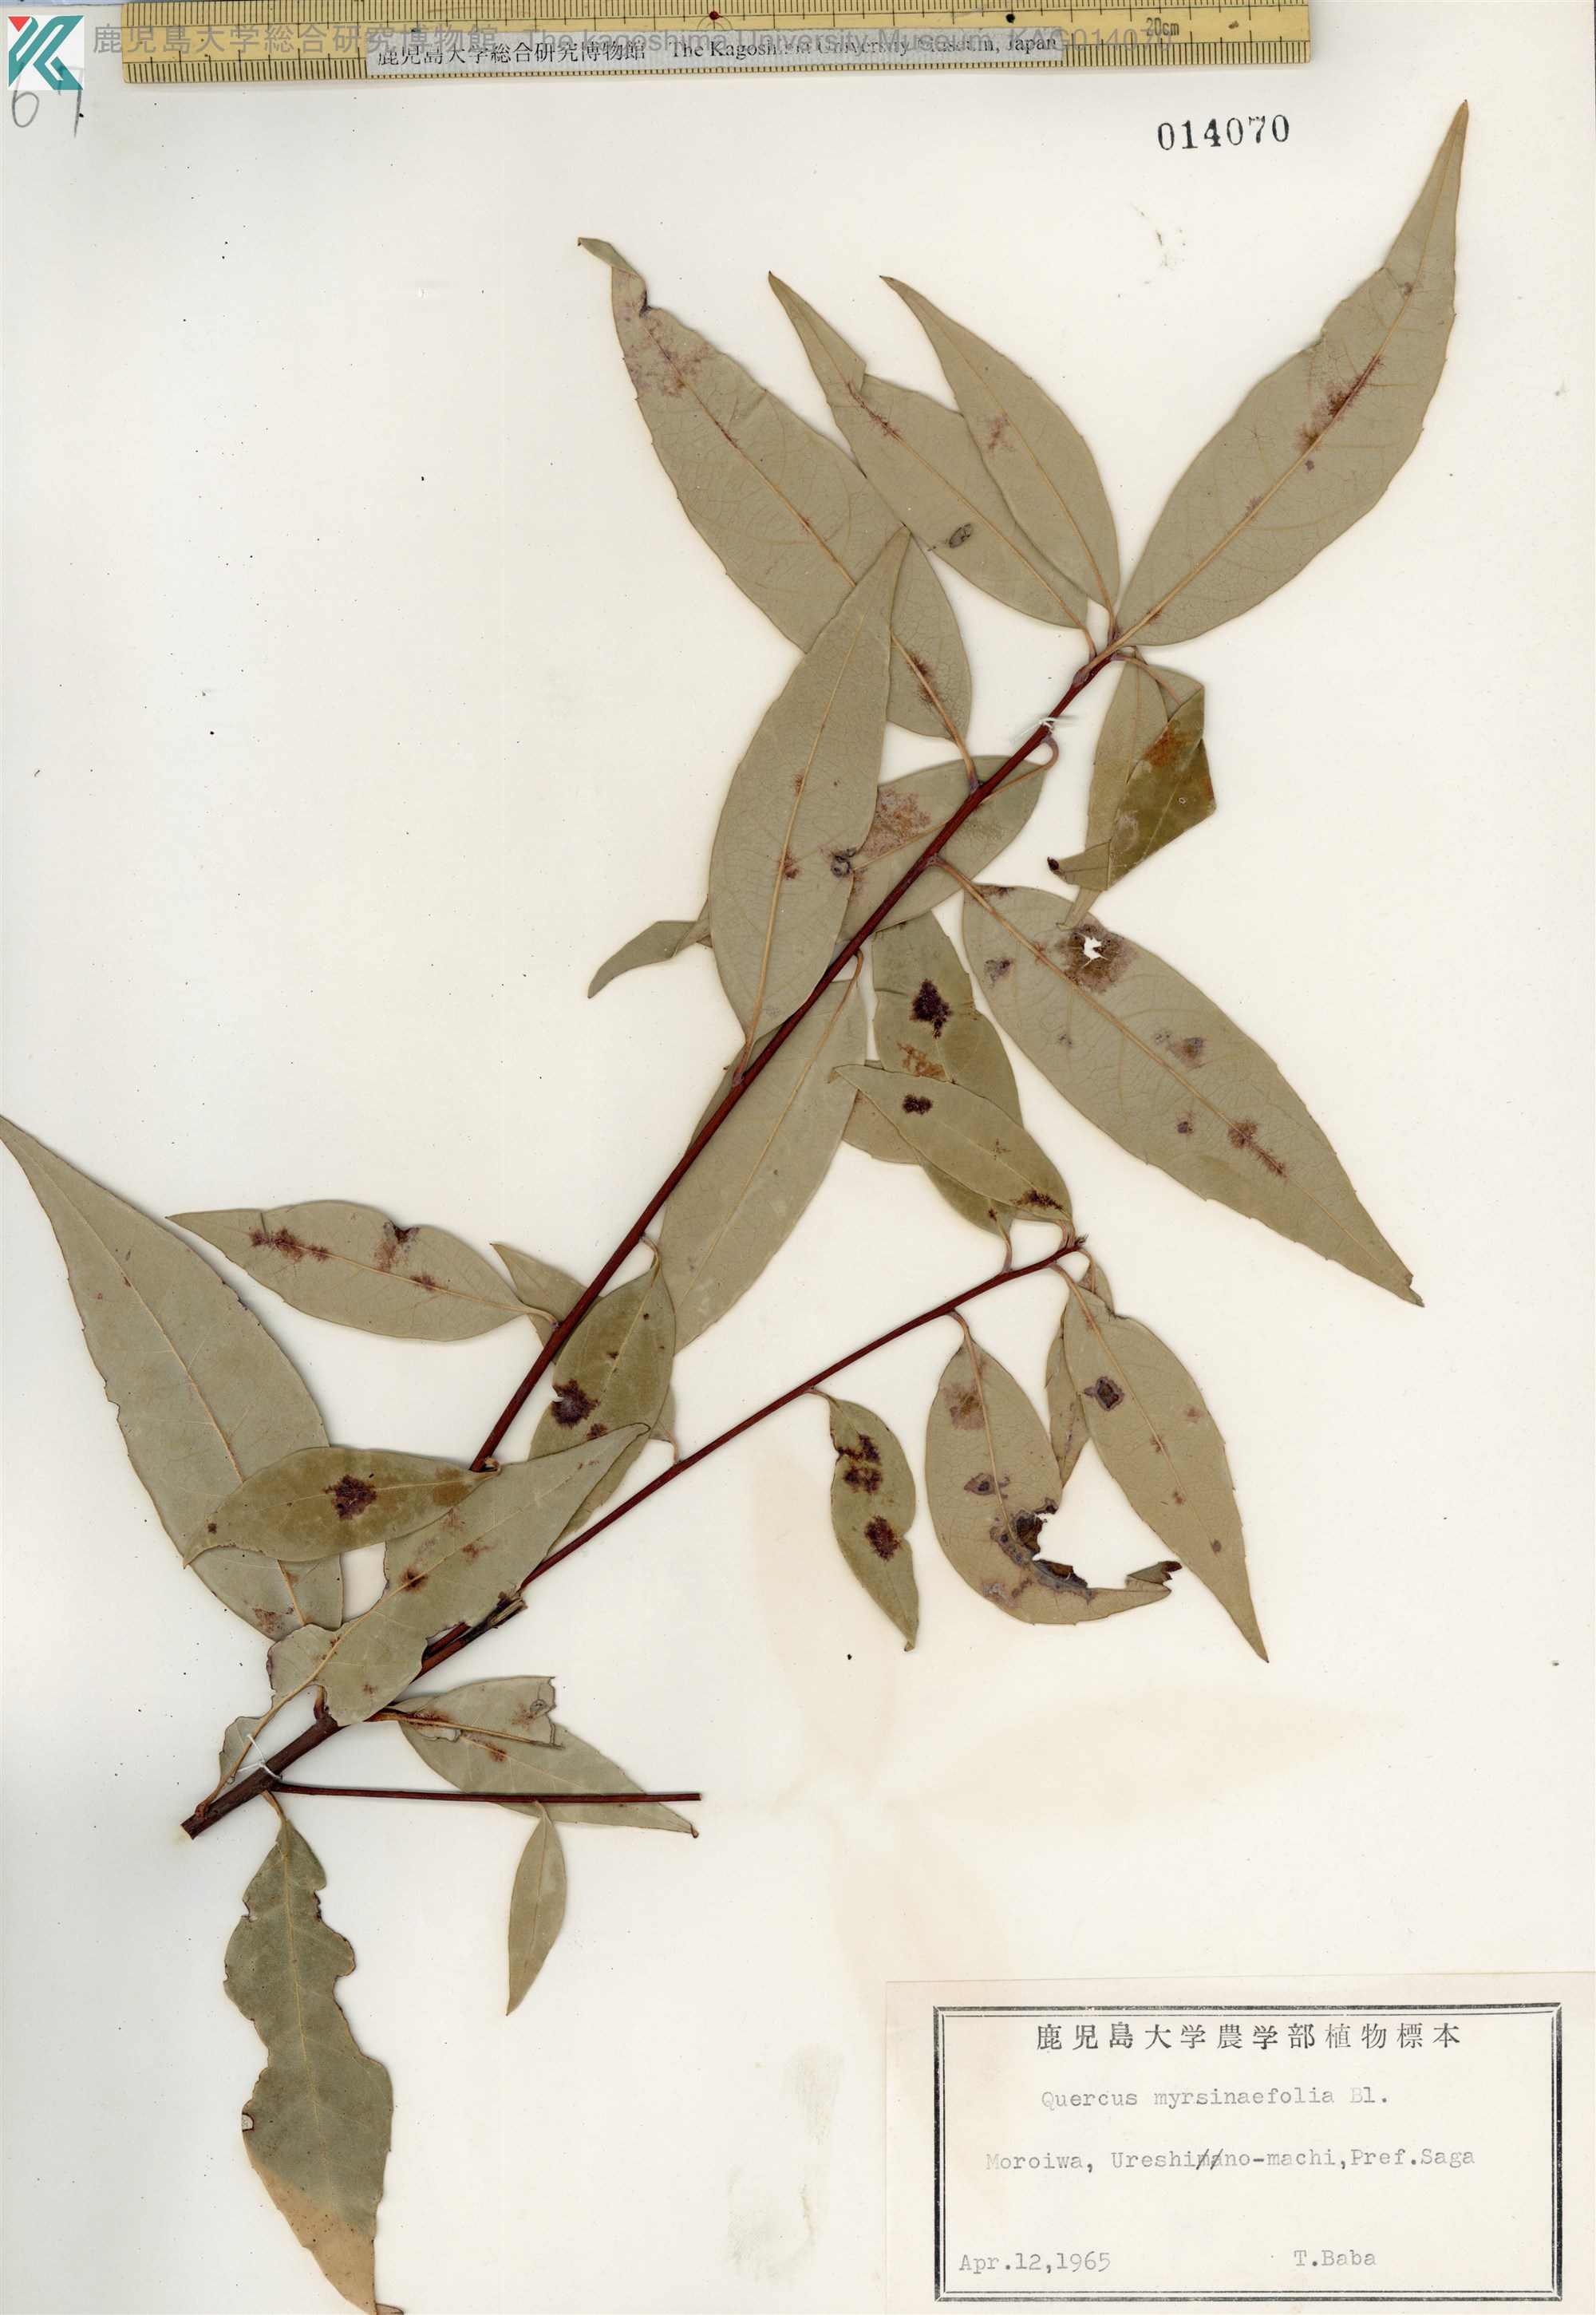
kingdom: Plantae
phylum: Tracheophyta
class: Magnoliopsida
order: Fagales
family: Fagaceae
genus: Quercus
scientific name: Quercus myrsinaefolia
